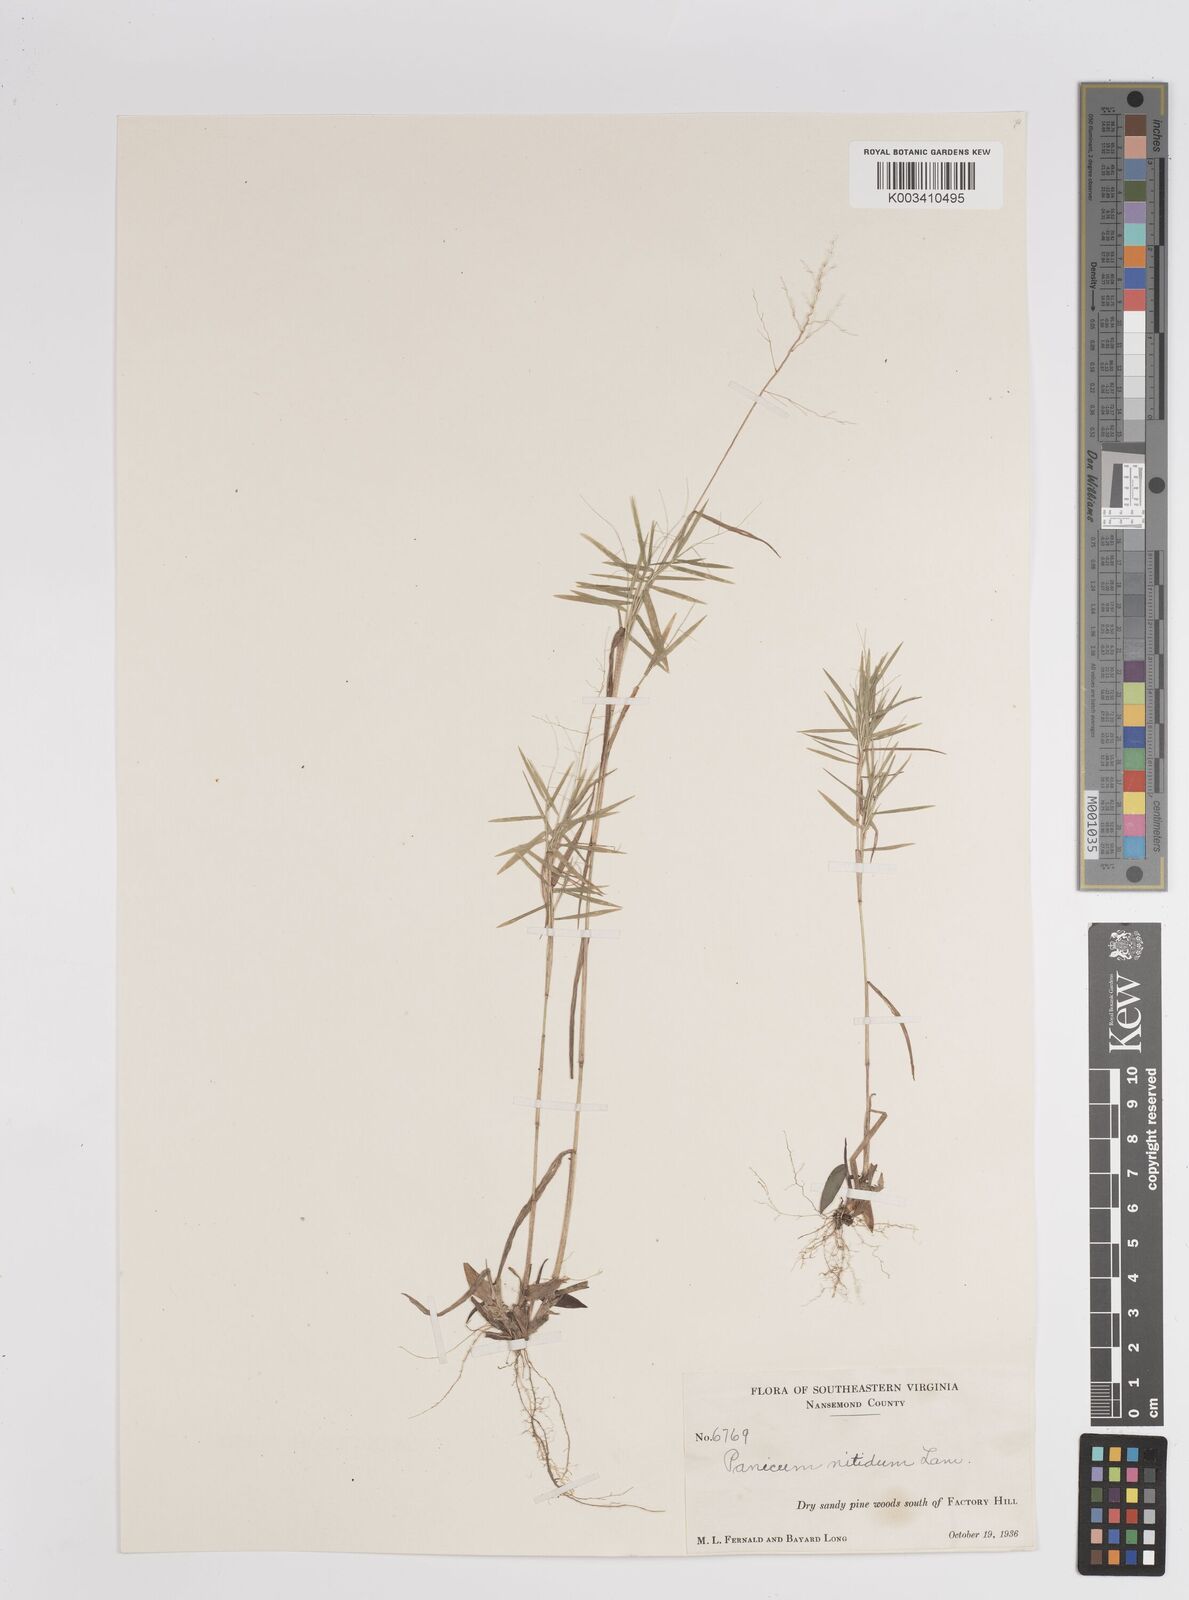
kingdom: Plantae
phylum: Tracheophyta
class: Liliopsida
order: Poales
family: Poaceae
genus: Dichanthelium
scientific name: Dichanthelium polyanthes
